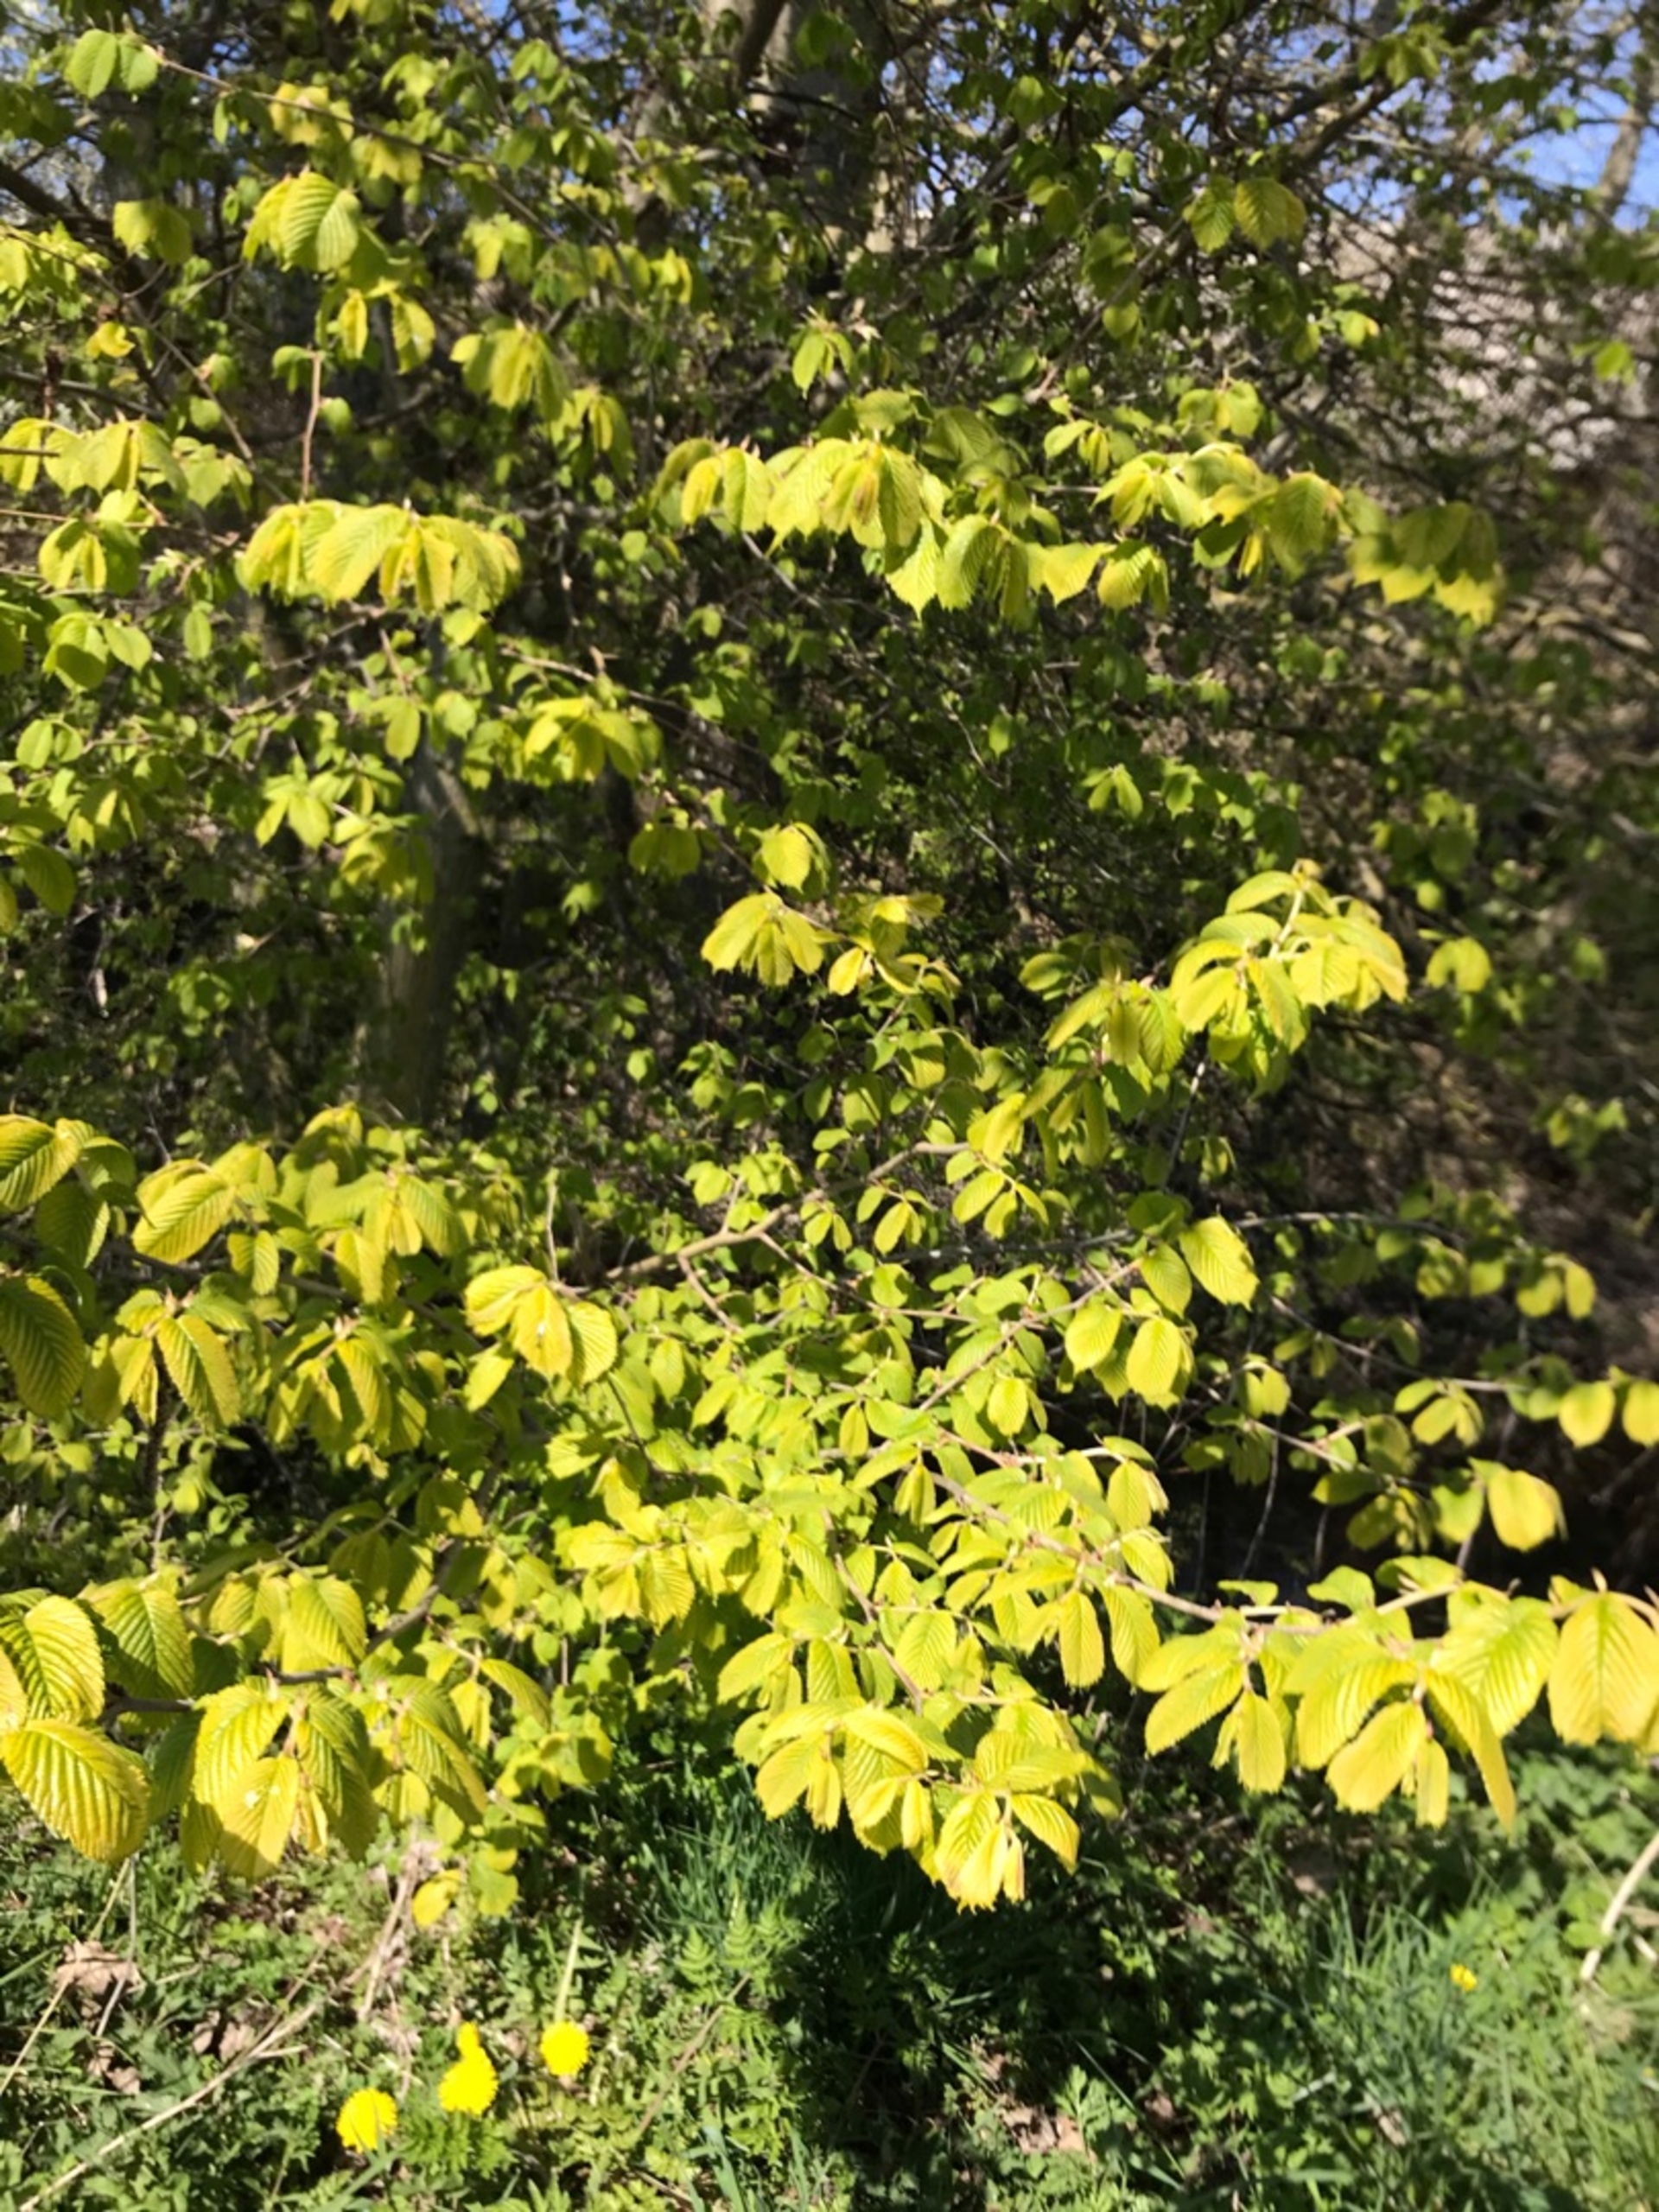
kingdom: Plantae
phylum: Tracheophyta
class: Magnoliopsida
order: Rosales
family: Ulmaceae
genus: Ulmus
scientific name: Ulmus glabra
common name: Skov-elm/storbladet elm
